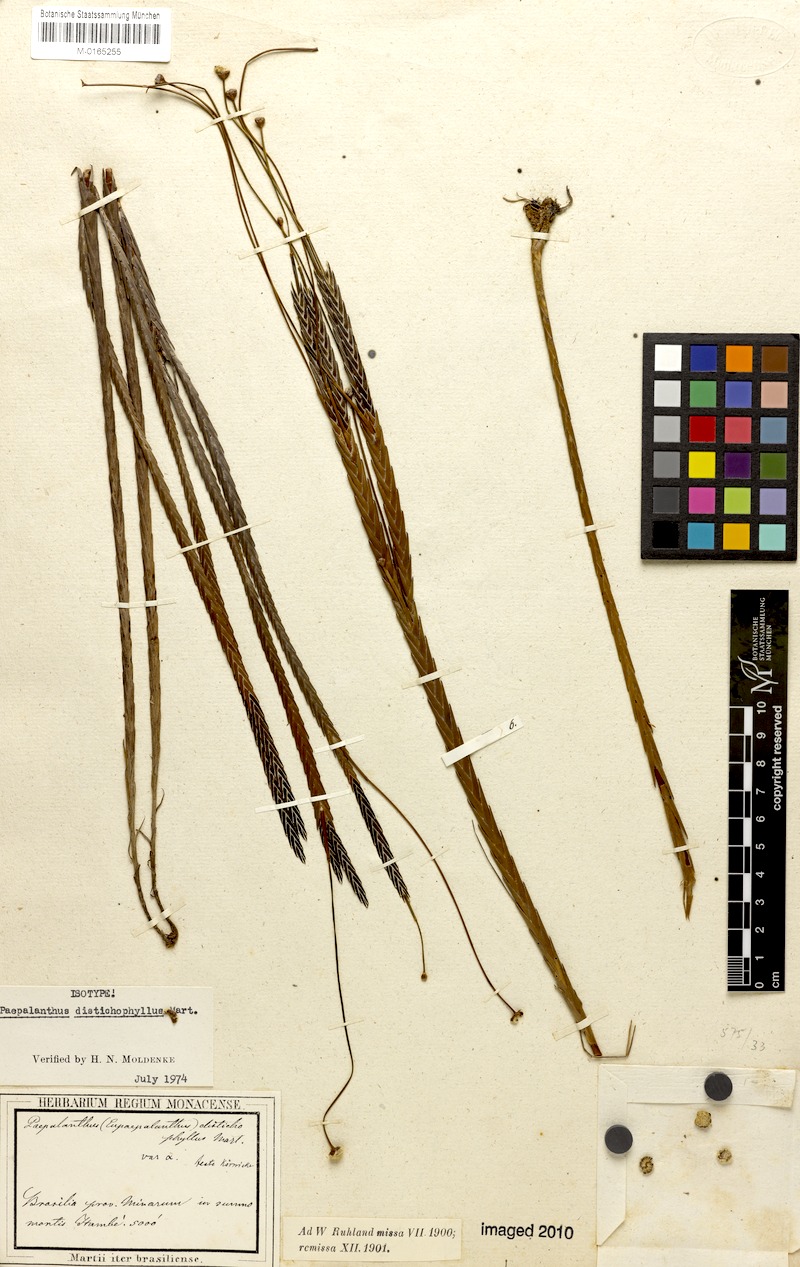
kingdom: Plantae
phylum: Tracheophyta
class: Liliopsida
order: Poales
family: Eriocaulaceae
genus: Paepalanthus
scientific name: Paepalanthus distichophyllus
